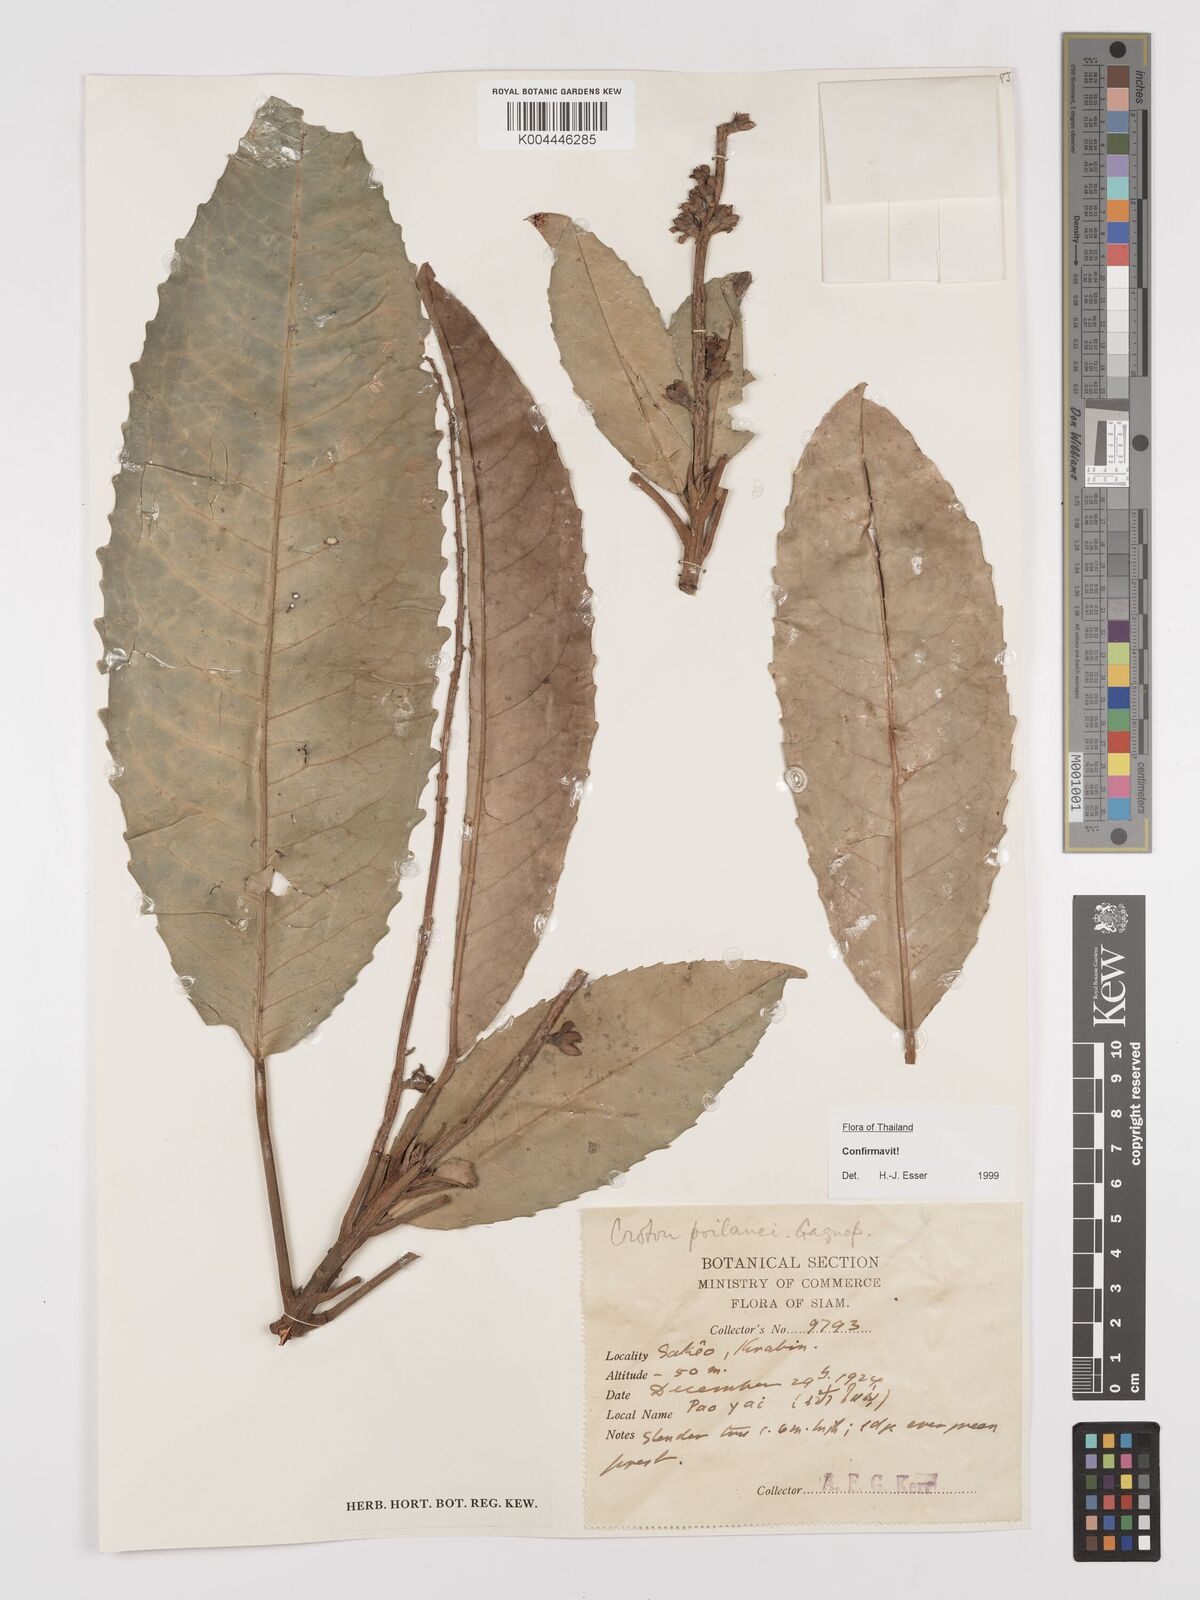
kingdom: Plantae
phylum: Tracheophyta
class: Magnoliopsida
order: Malpighiales
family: Euphorbiaceae
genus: Croton
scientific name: Croton poilanei
